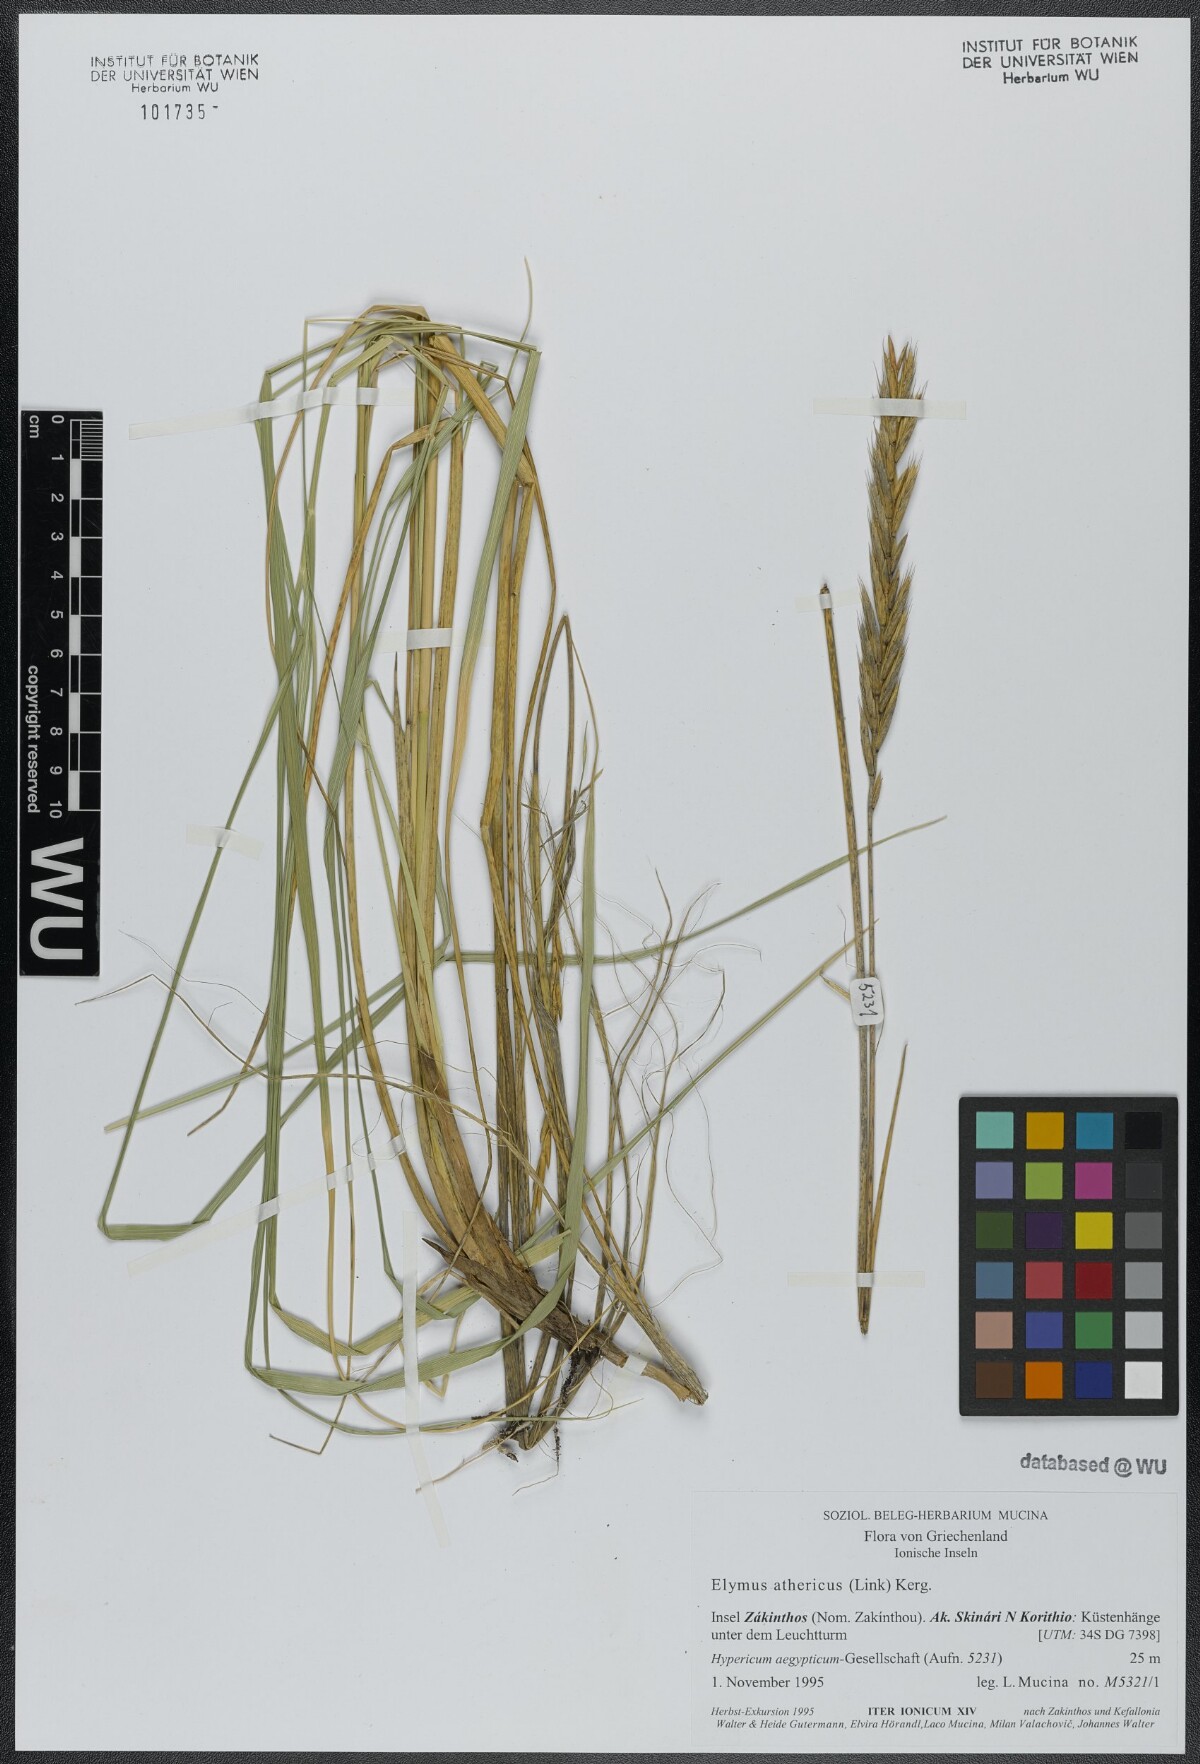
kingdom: Plantae
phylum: Tracheophyta
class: Liliopsida
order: Poales
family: Poaceae
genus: Elymus
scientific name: Elymus athericus
